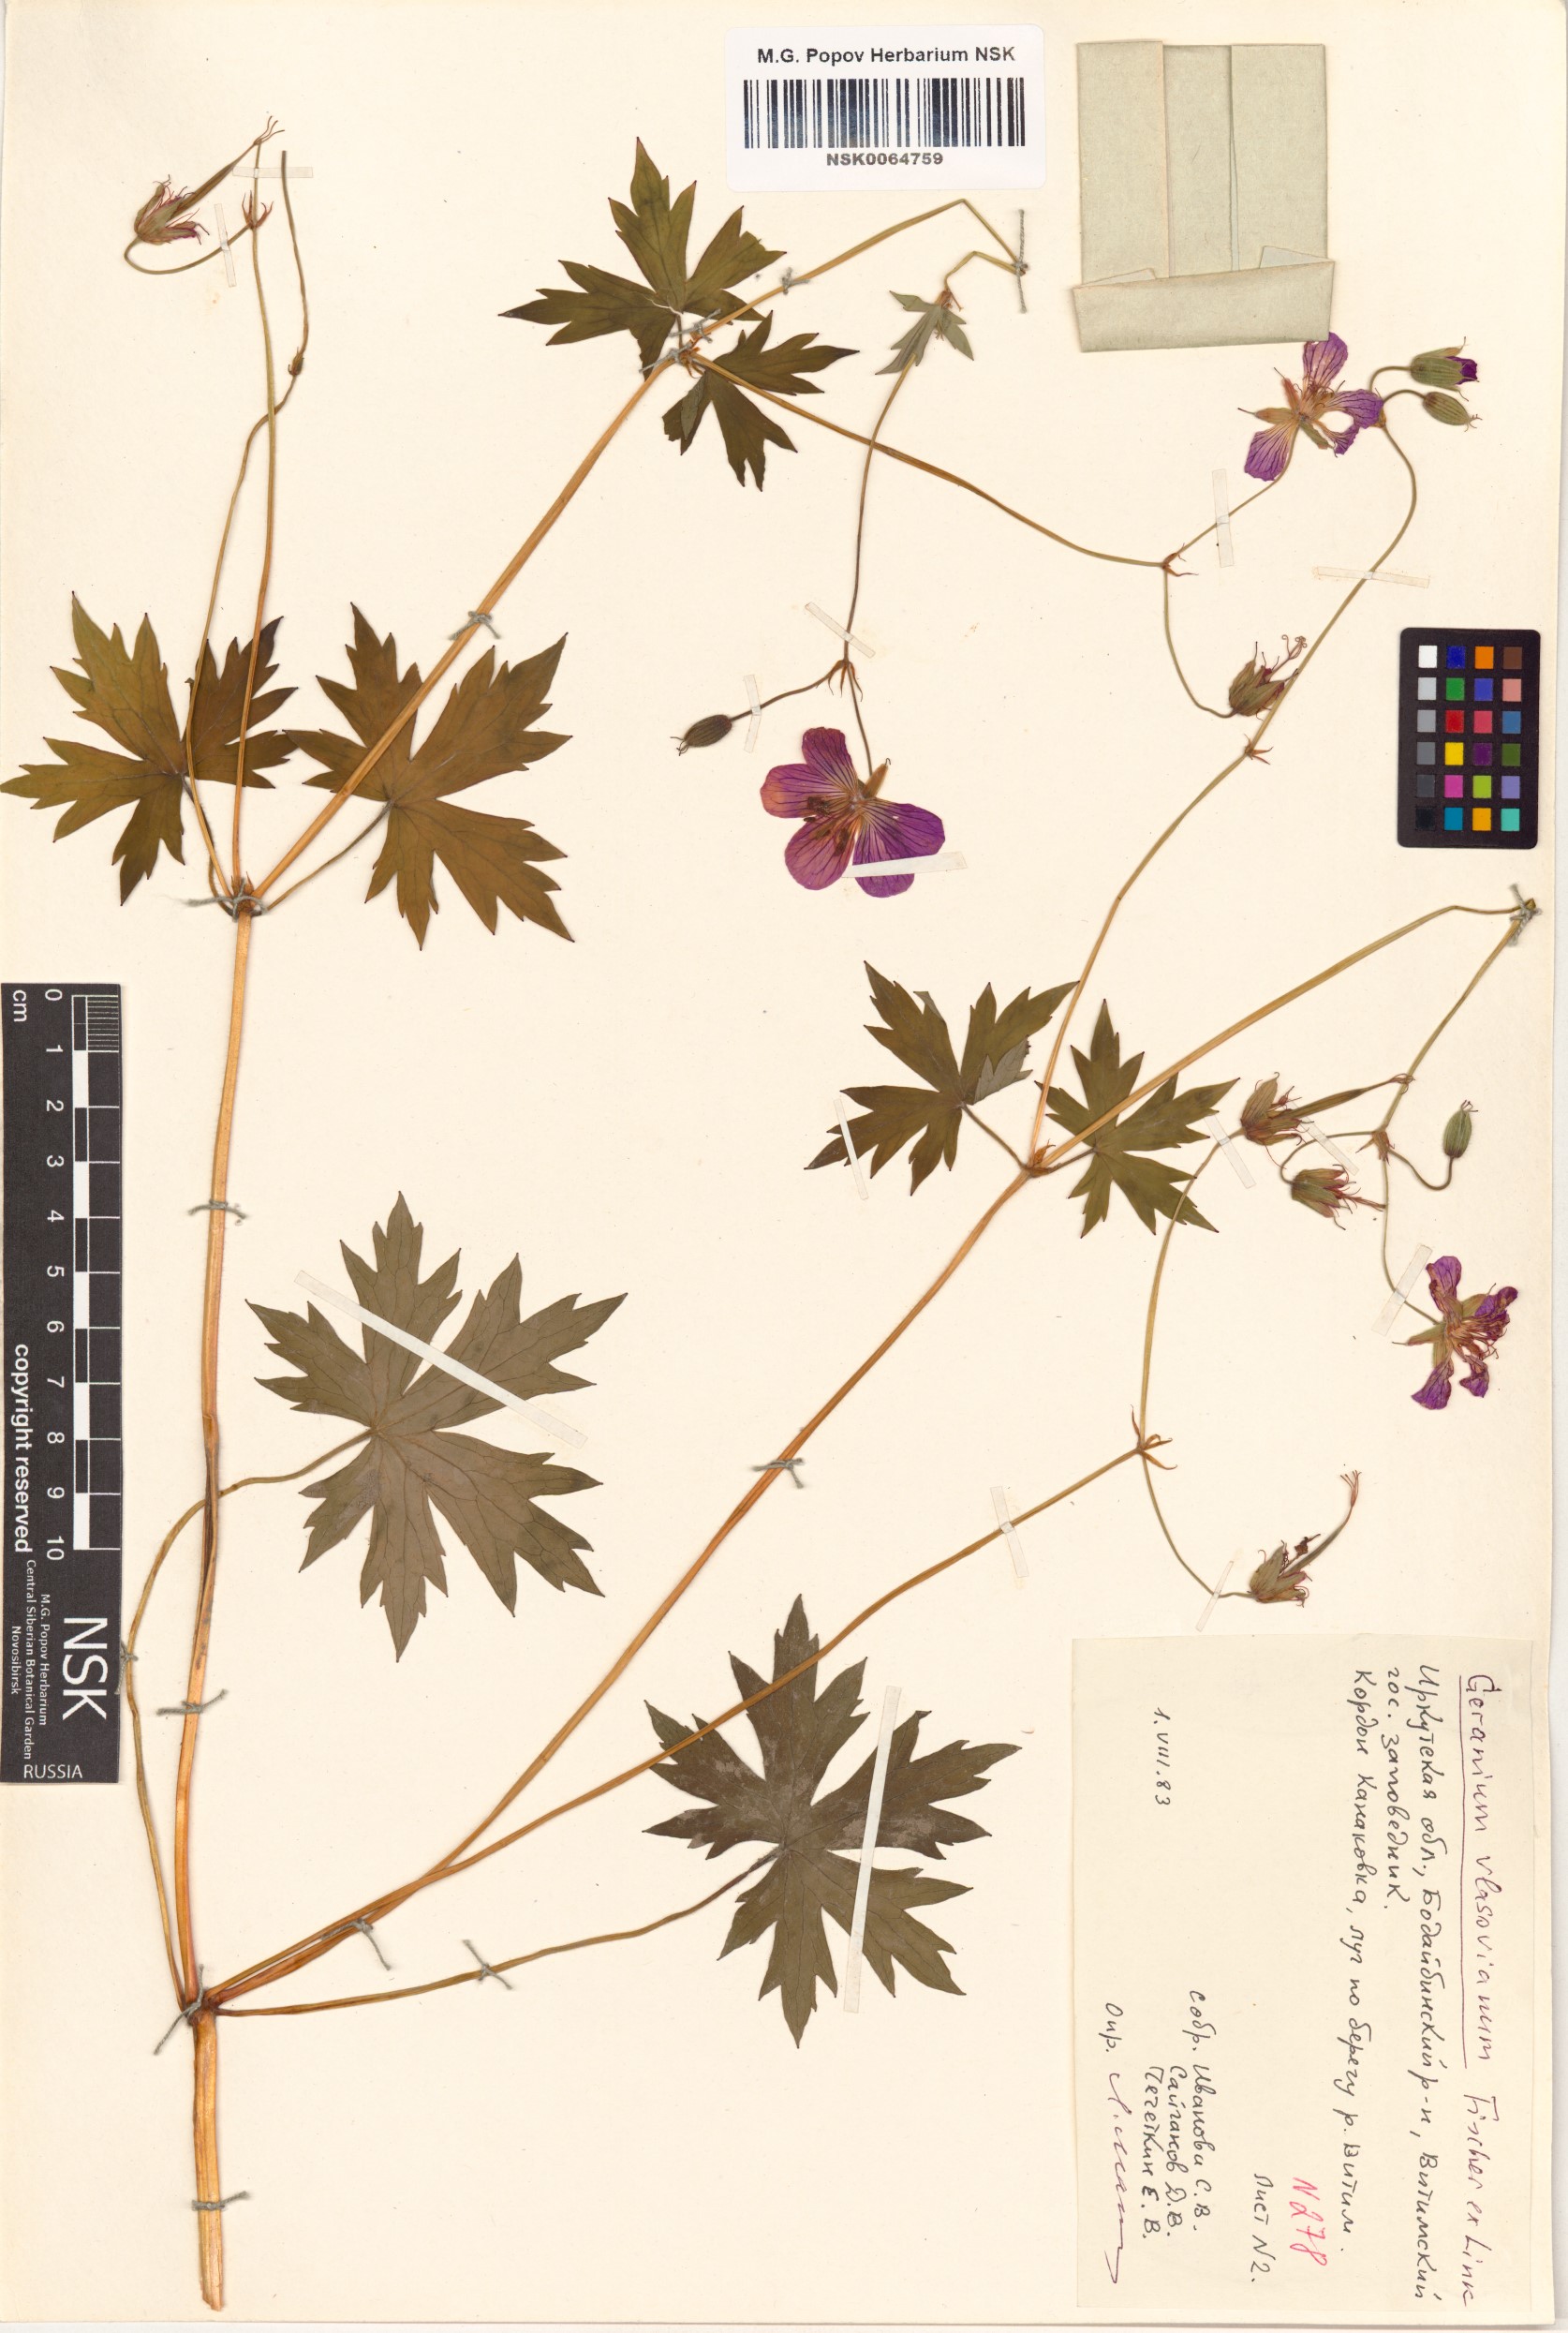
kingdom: Plantae
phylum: Tracheophyta
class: Magnoliopsida
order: Geraniales
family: Geraniaceae
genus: Geranium
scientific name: Geranium wlassovianum
